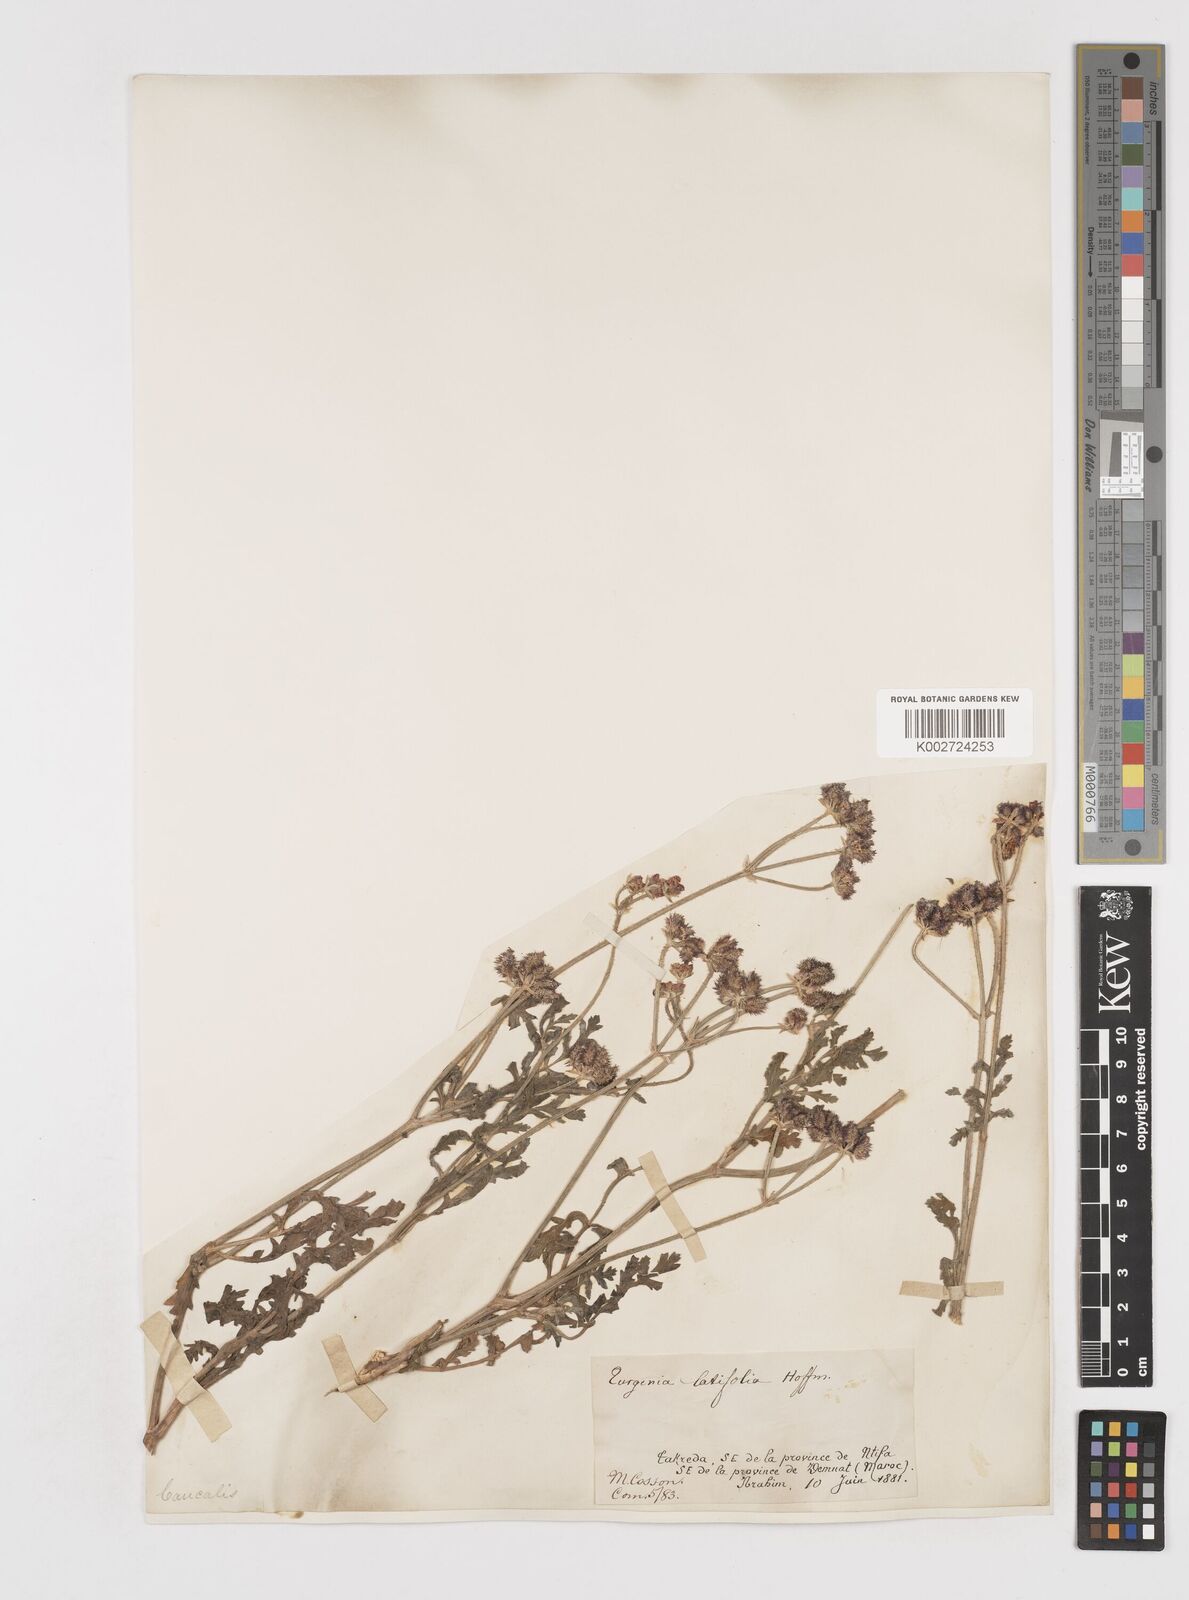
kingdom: Plantae
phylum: Tracheophyta
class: Magnoliopsida
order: Apiales
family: Apiaceae
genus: Turgenia
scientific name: Turgenia latifolia
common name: Greater bur-parsley
